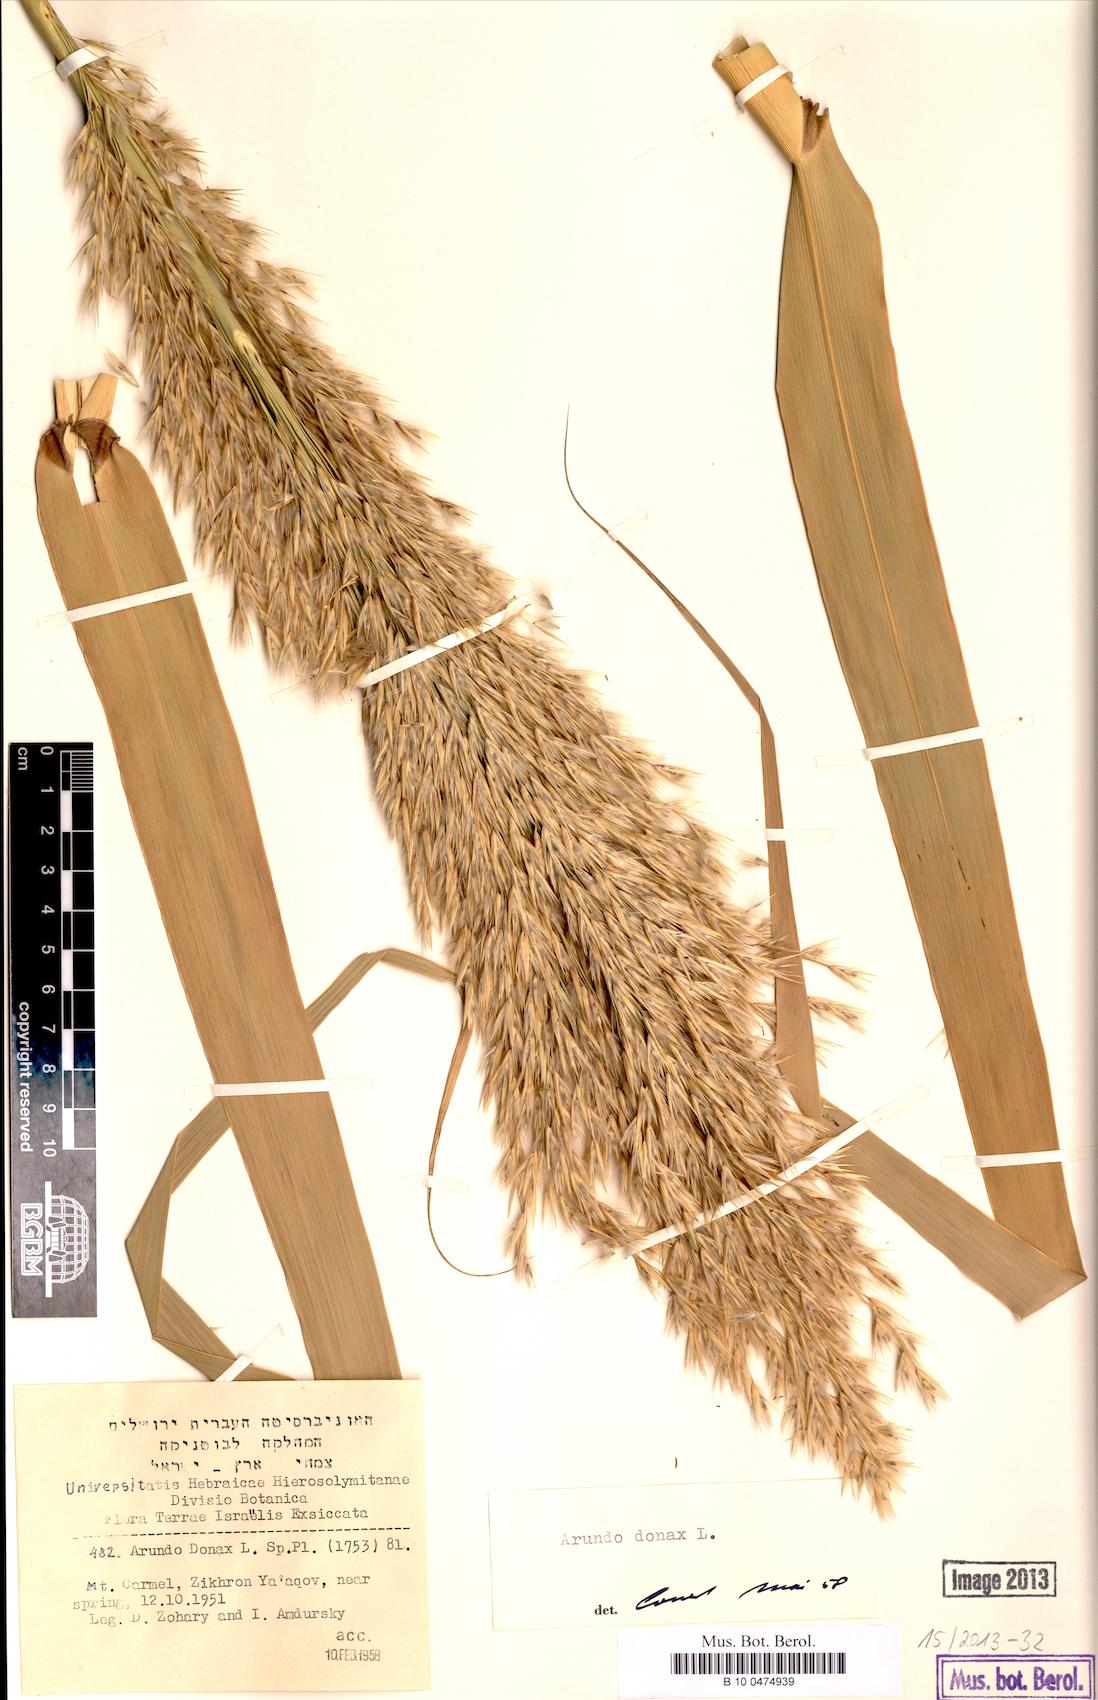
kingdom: Plantae
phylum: Tracheophyta
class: Liliopsida
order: Poales
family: Poaceae
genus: Arundo
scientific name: Arundo donax
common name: Giant reed
